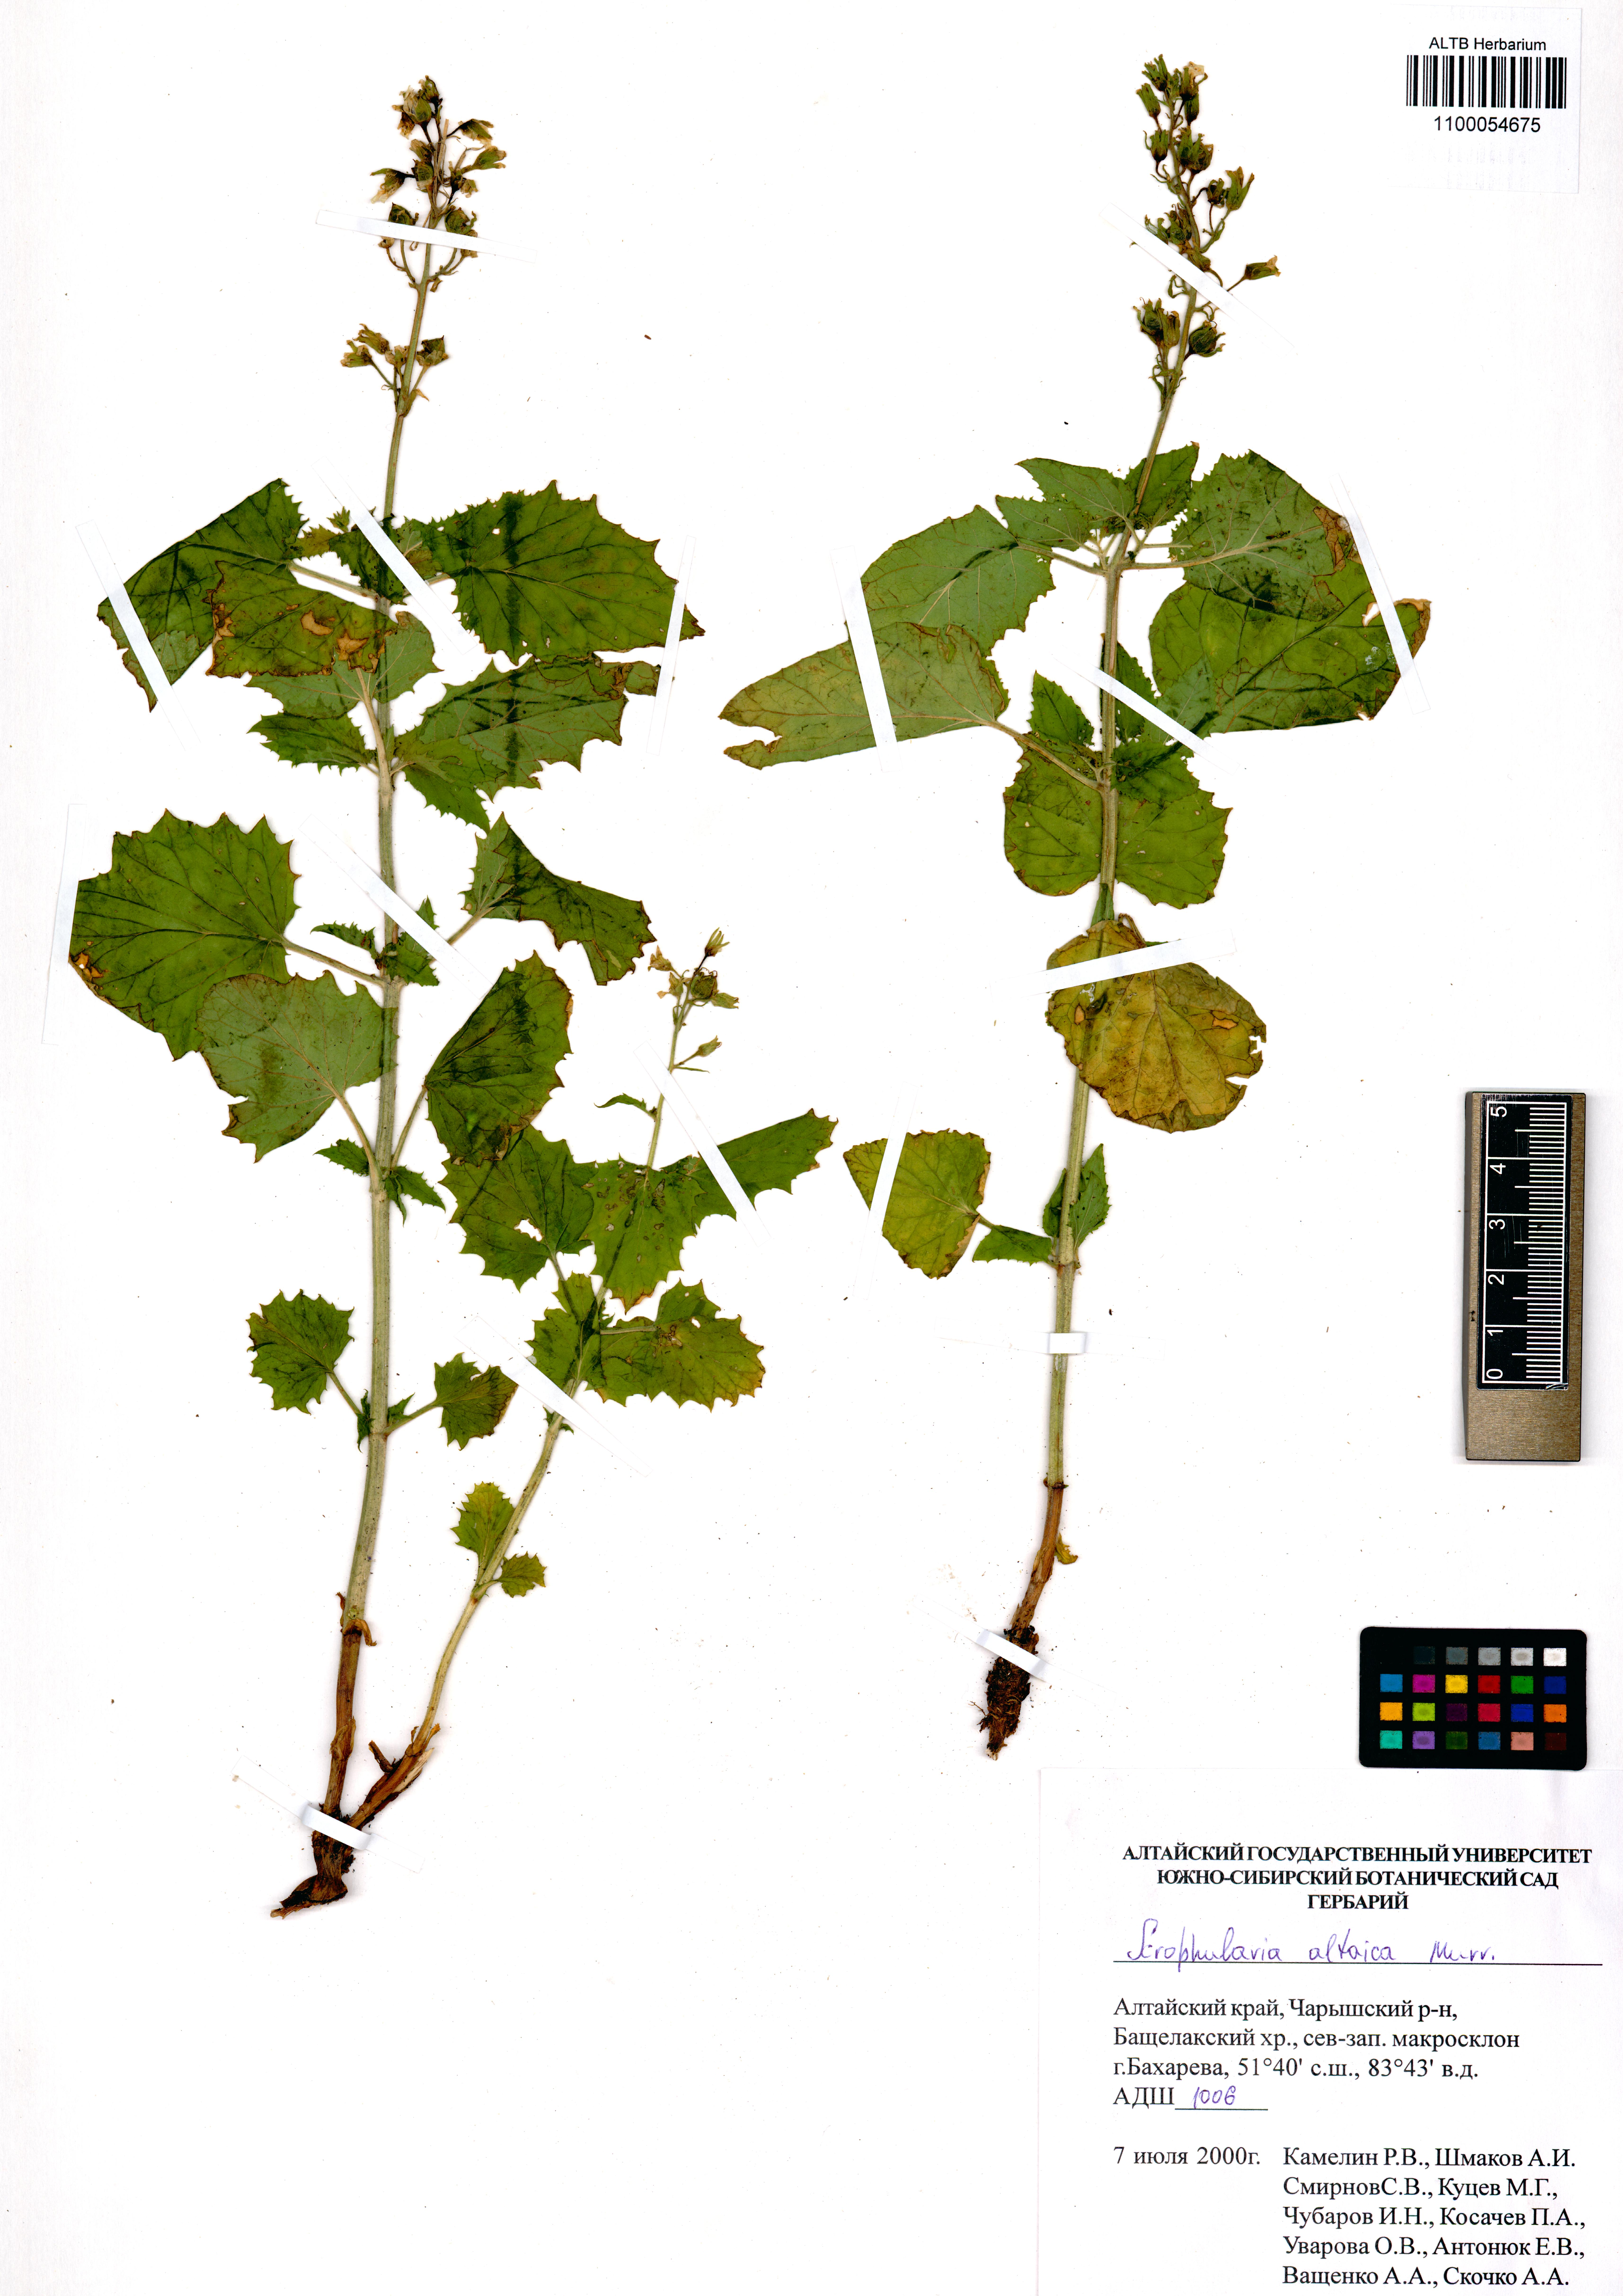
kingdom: Plantae
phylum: Tracheophyta
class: Magnoliopsida
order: Lamiales
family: Scrophulariaceae
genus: Scrophularia
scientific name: Scrophularia altaica
